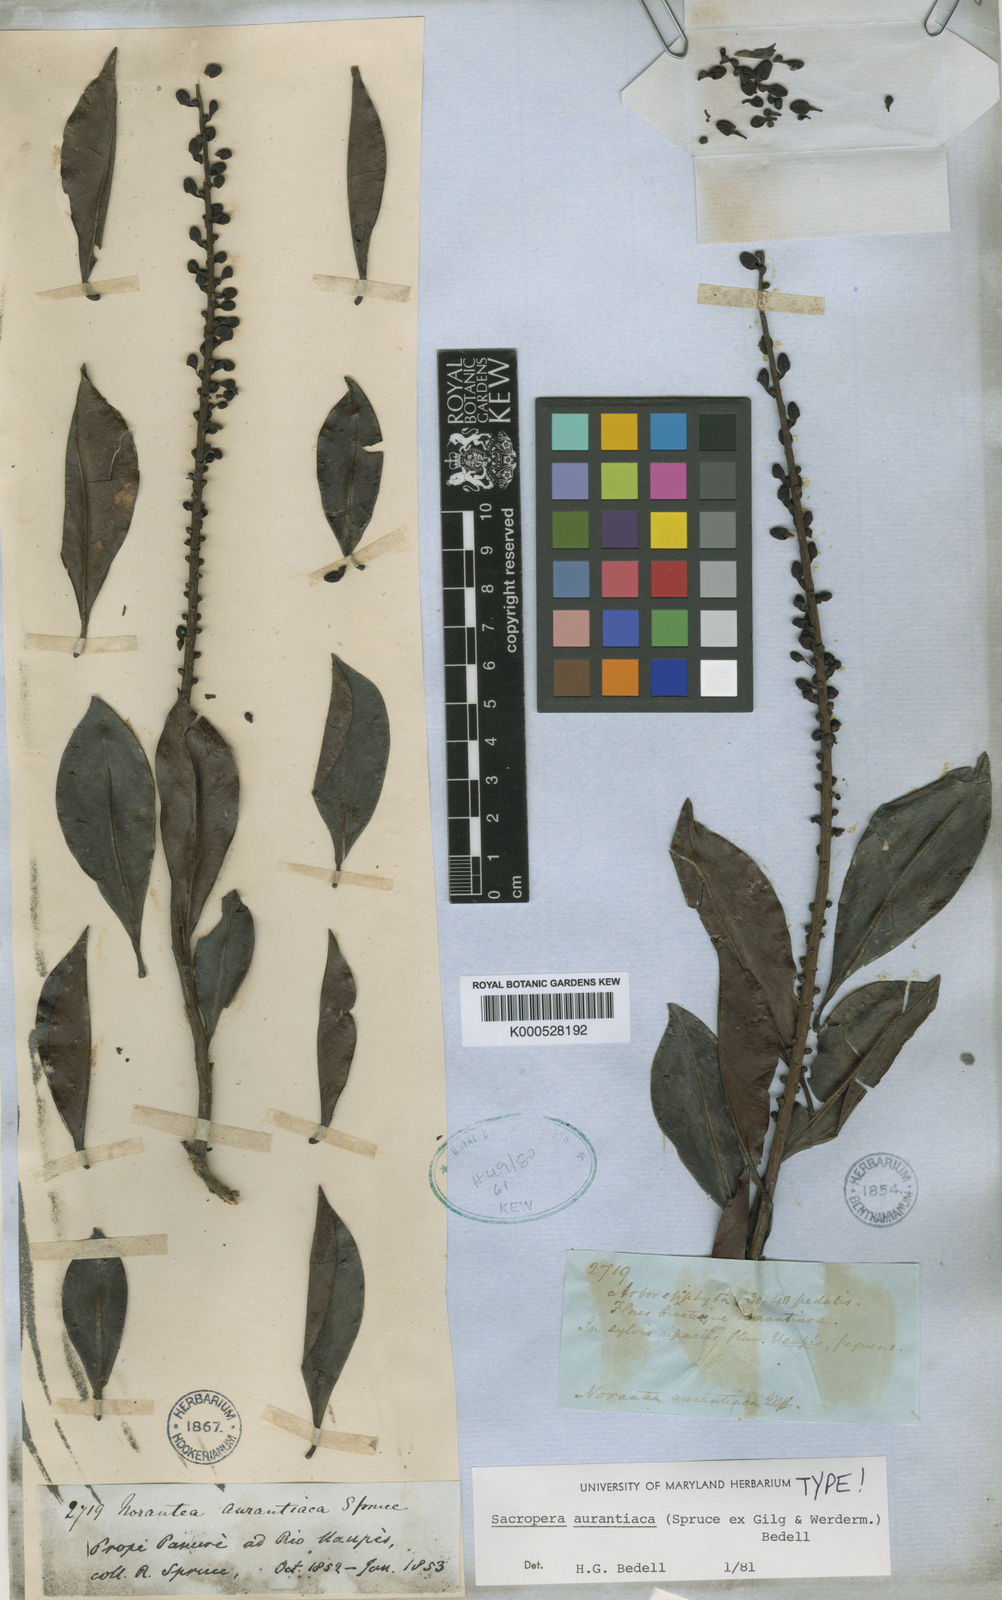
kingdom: Plantae
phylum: Tracheophyta
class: Magnoliopsida
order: Ericales
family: Marcgraviaceae
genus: Sarcopera
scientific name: Sarcopera aurantiaca
